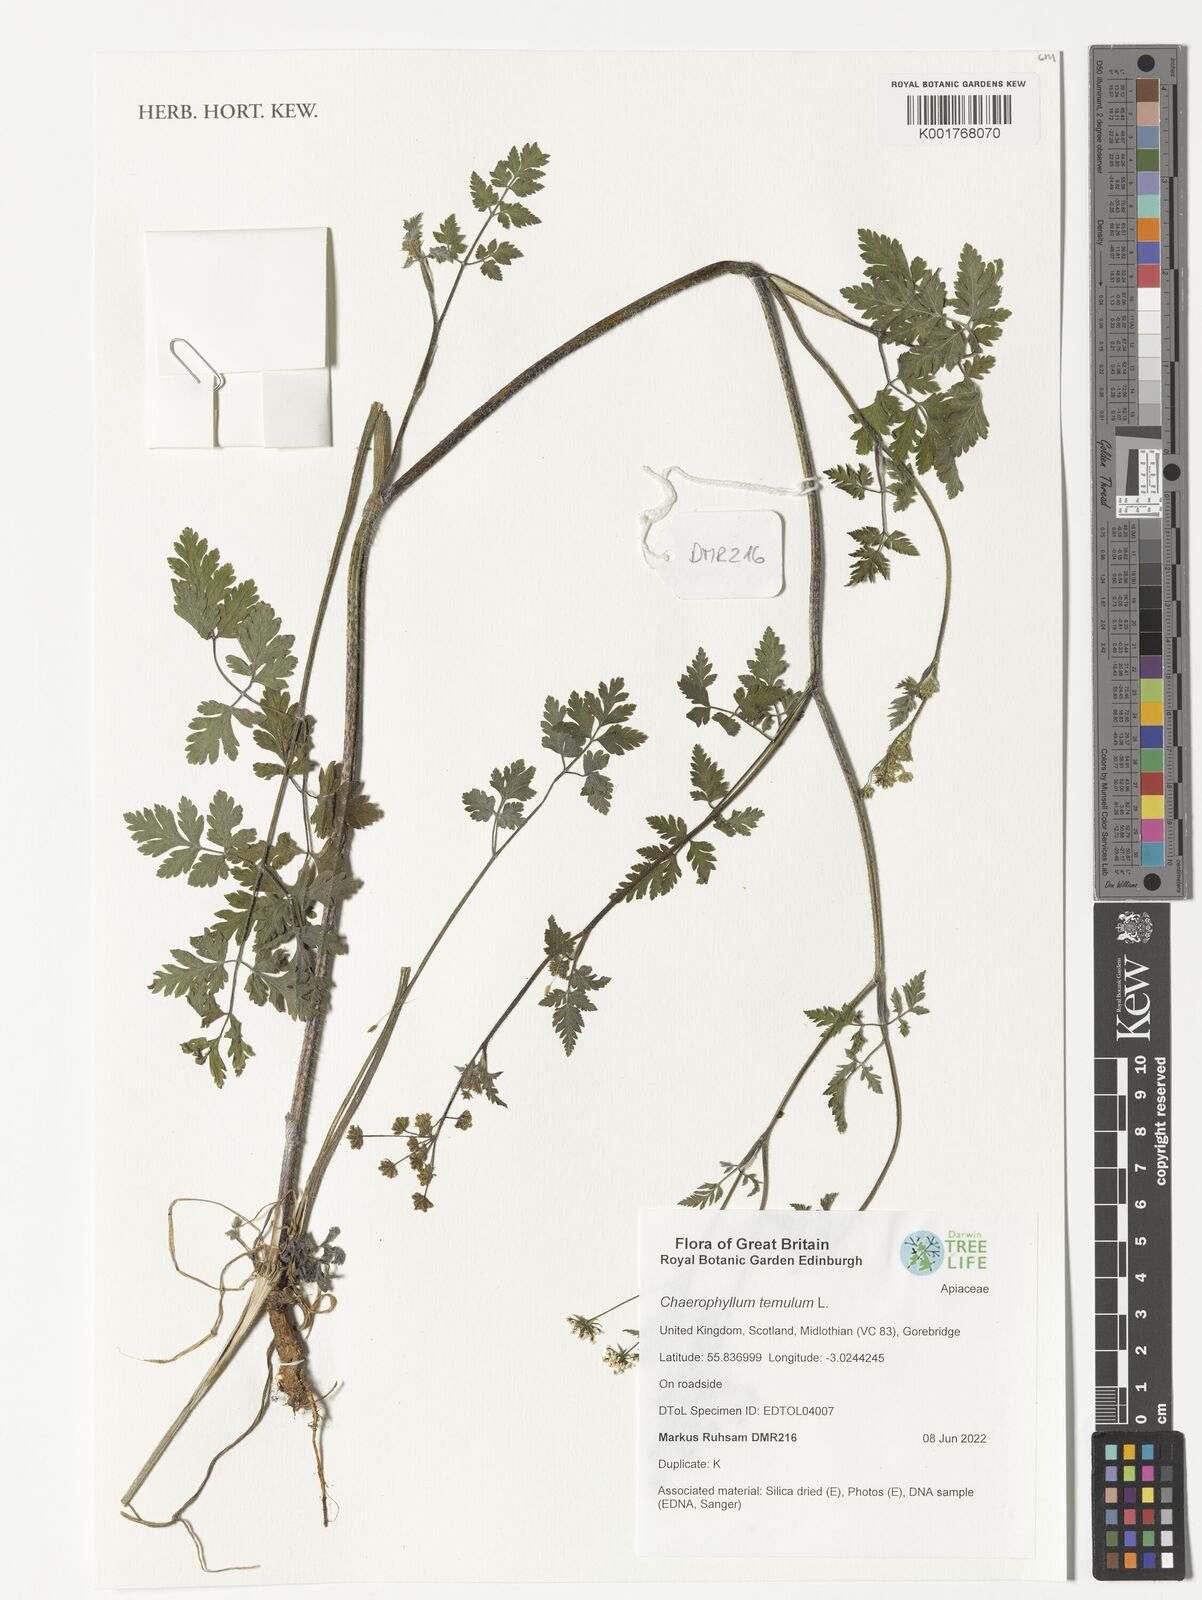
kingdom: Plantae
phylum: Tracheophyta
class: Magnoliopsida
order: Apiales
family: Apiaceae
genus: Chaerophyllum
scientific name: Chaerophyllum temulum
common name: Rough chervil
